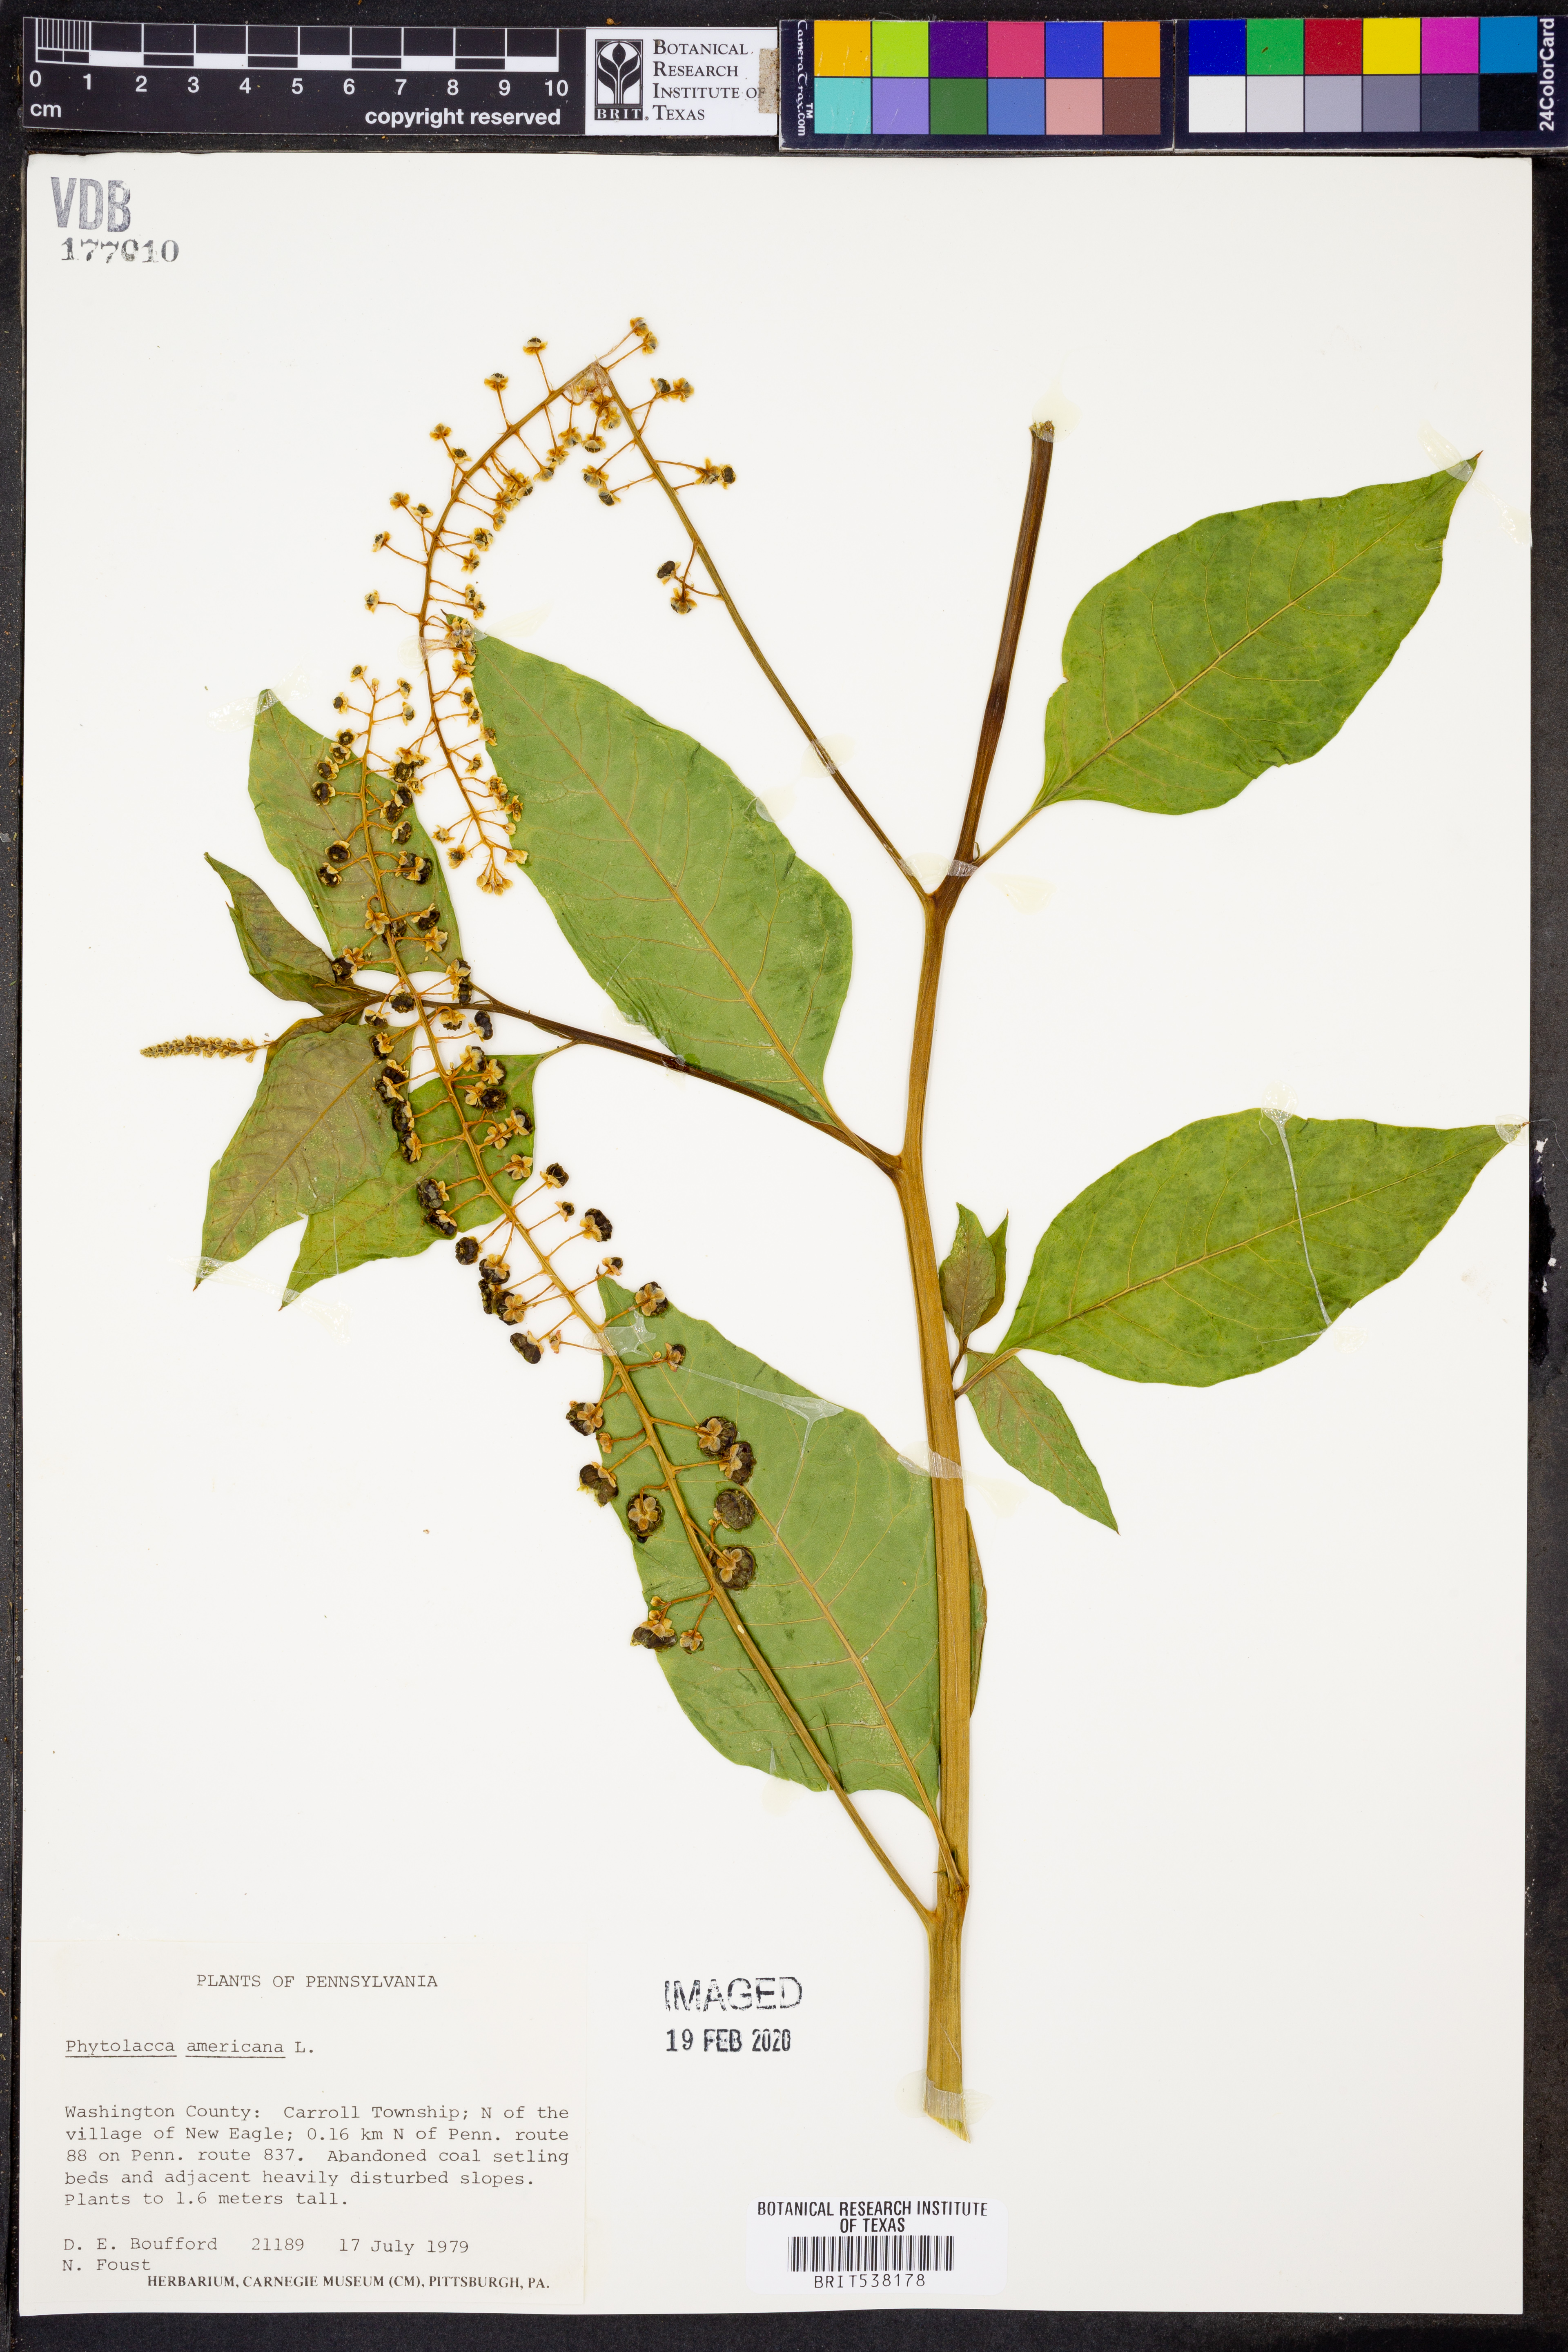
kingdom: Plantae
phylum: Tracheophyta
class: Magnoliopsida
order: Caryophyllales
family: Phytolaccaceae
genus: Phytolacca
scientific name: Phytolacca americana
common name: American pokeweed
